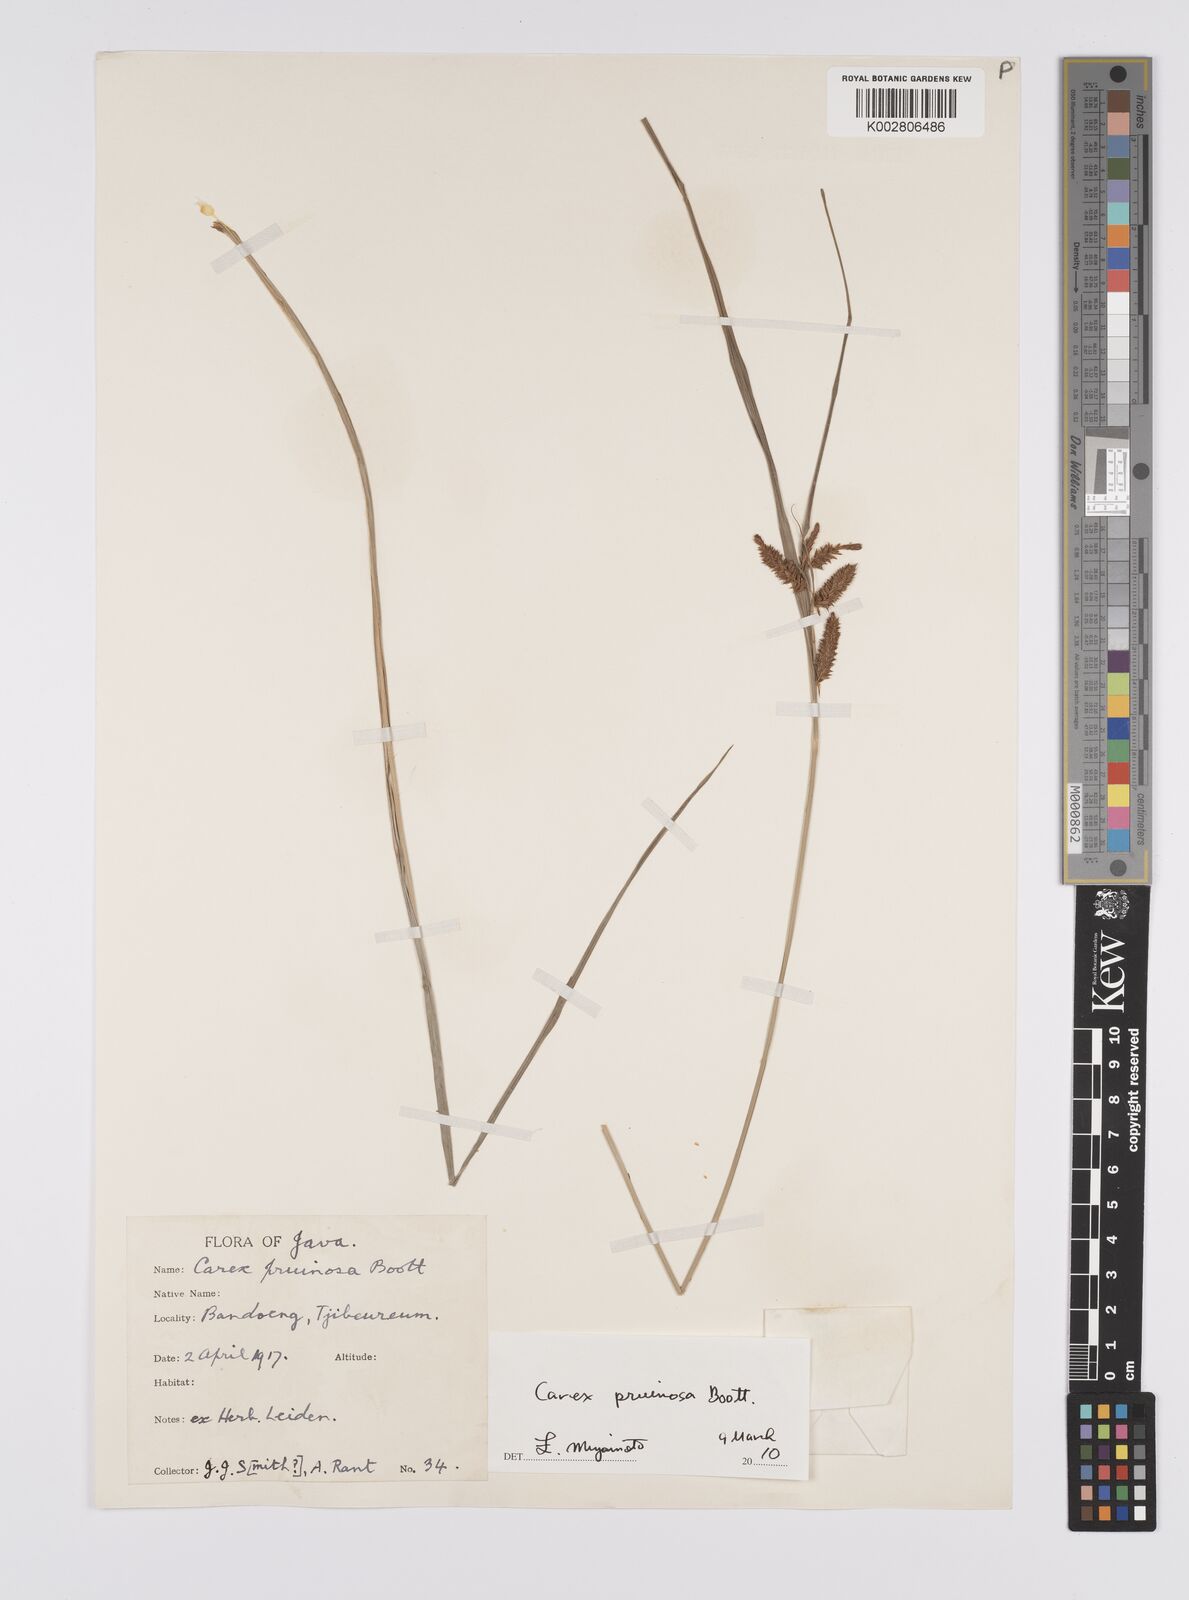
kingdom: Plantae
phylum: Tracheophyta
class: Liliopsida
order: Poales
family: Cyperaceae
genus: Carex
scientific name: Carex pruinosa
